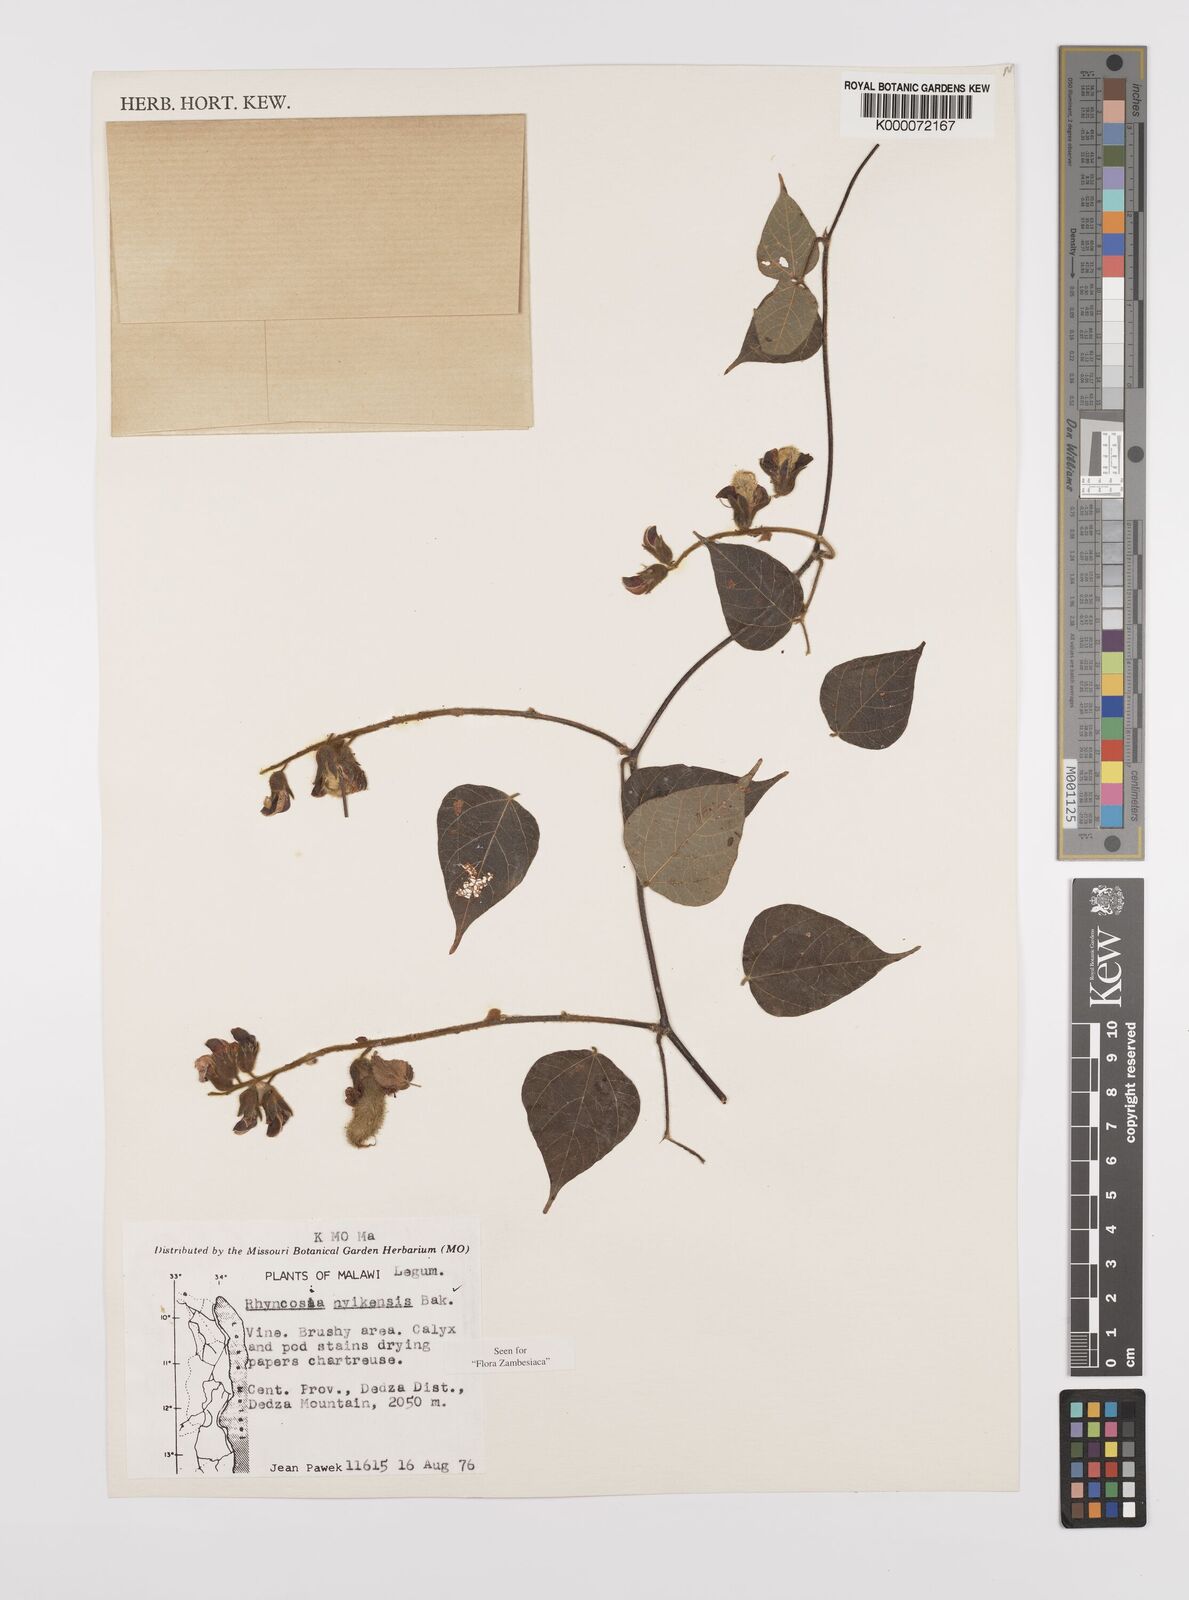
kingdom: Plantae
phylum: Tracheophyta
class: Magnoliopsida
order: Fabales
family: Fabaceae
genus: Rhynchosia
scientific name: Rhynchosia nyikensis
